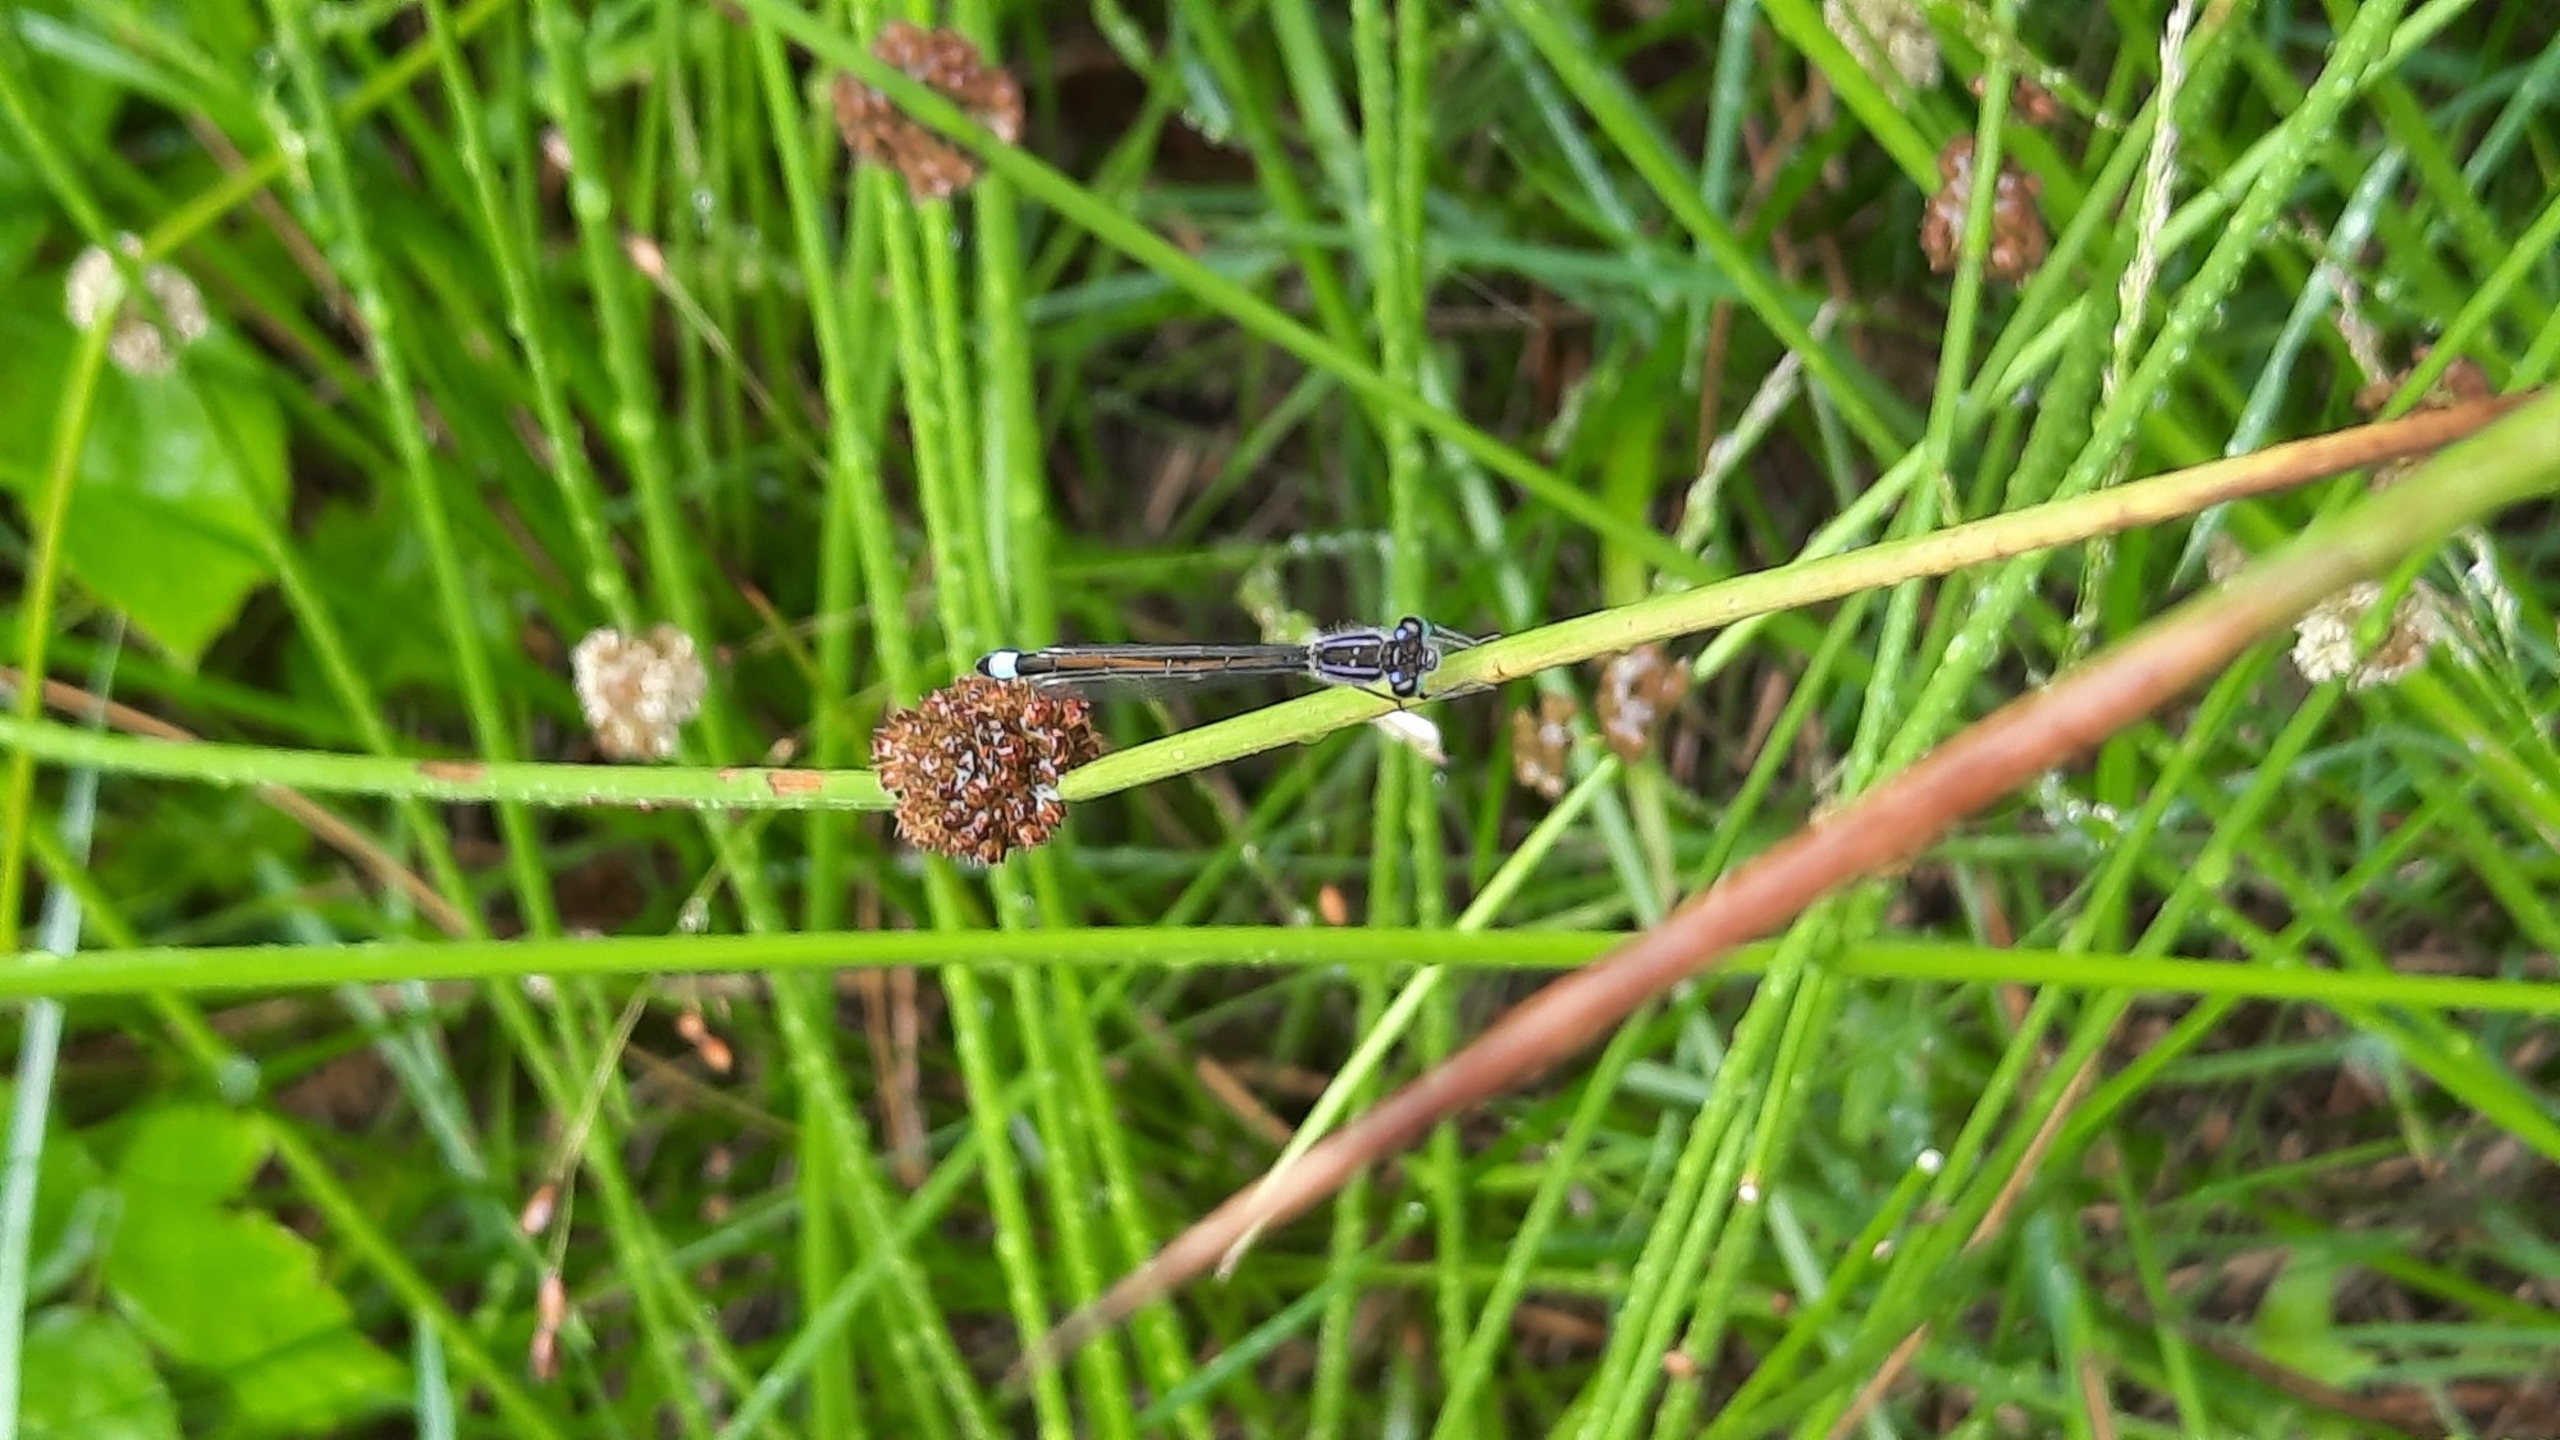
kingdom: Animalia
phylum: Arthropoda
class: Insecta
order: Odonata
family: Coenagrionidae
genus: Ischnura
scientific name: Ischnura elegans
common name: Stor farvevandnymfe
